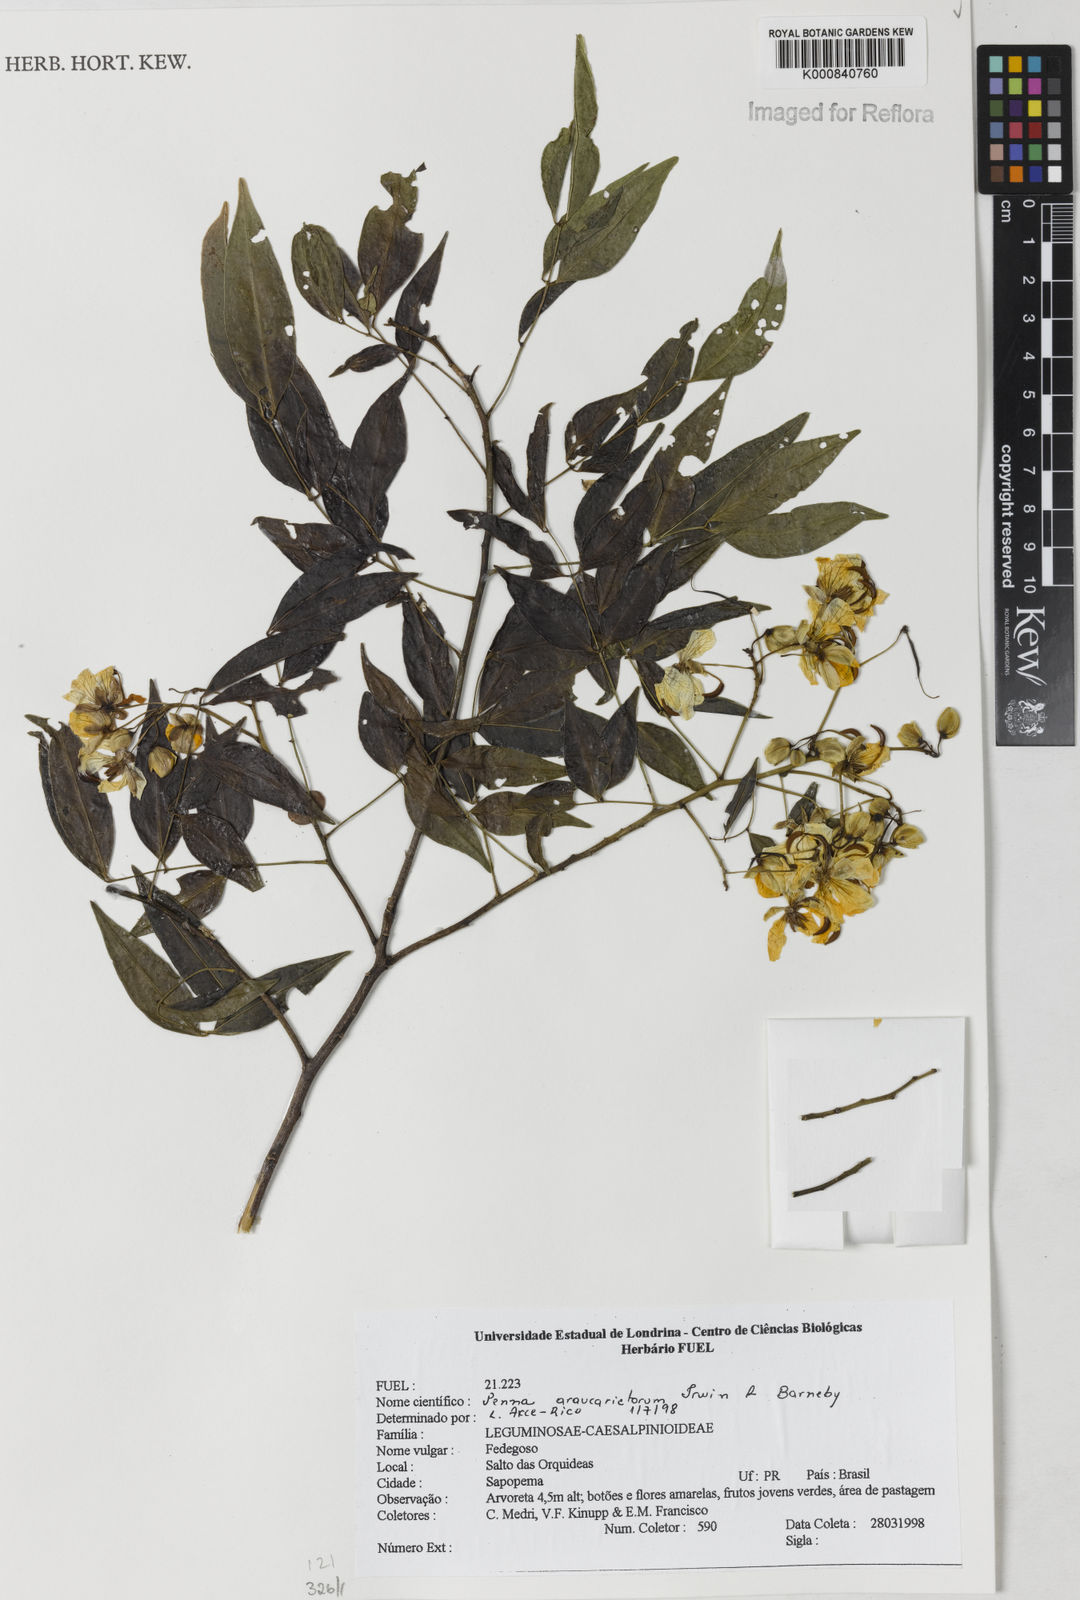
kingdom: Plantae
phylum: Tracheophyta
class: Magnoliopsida
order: Fabales
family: Fabaceae
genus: Senna
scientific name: Senna araucarietorum
